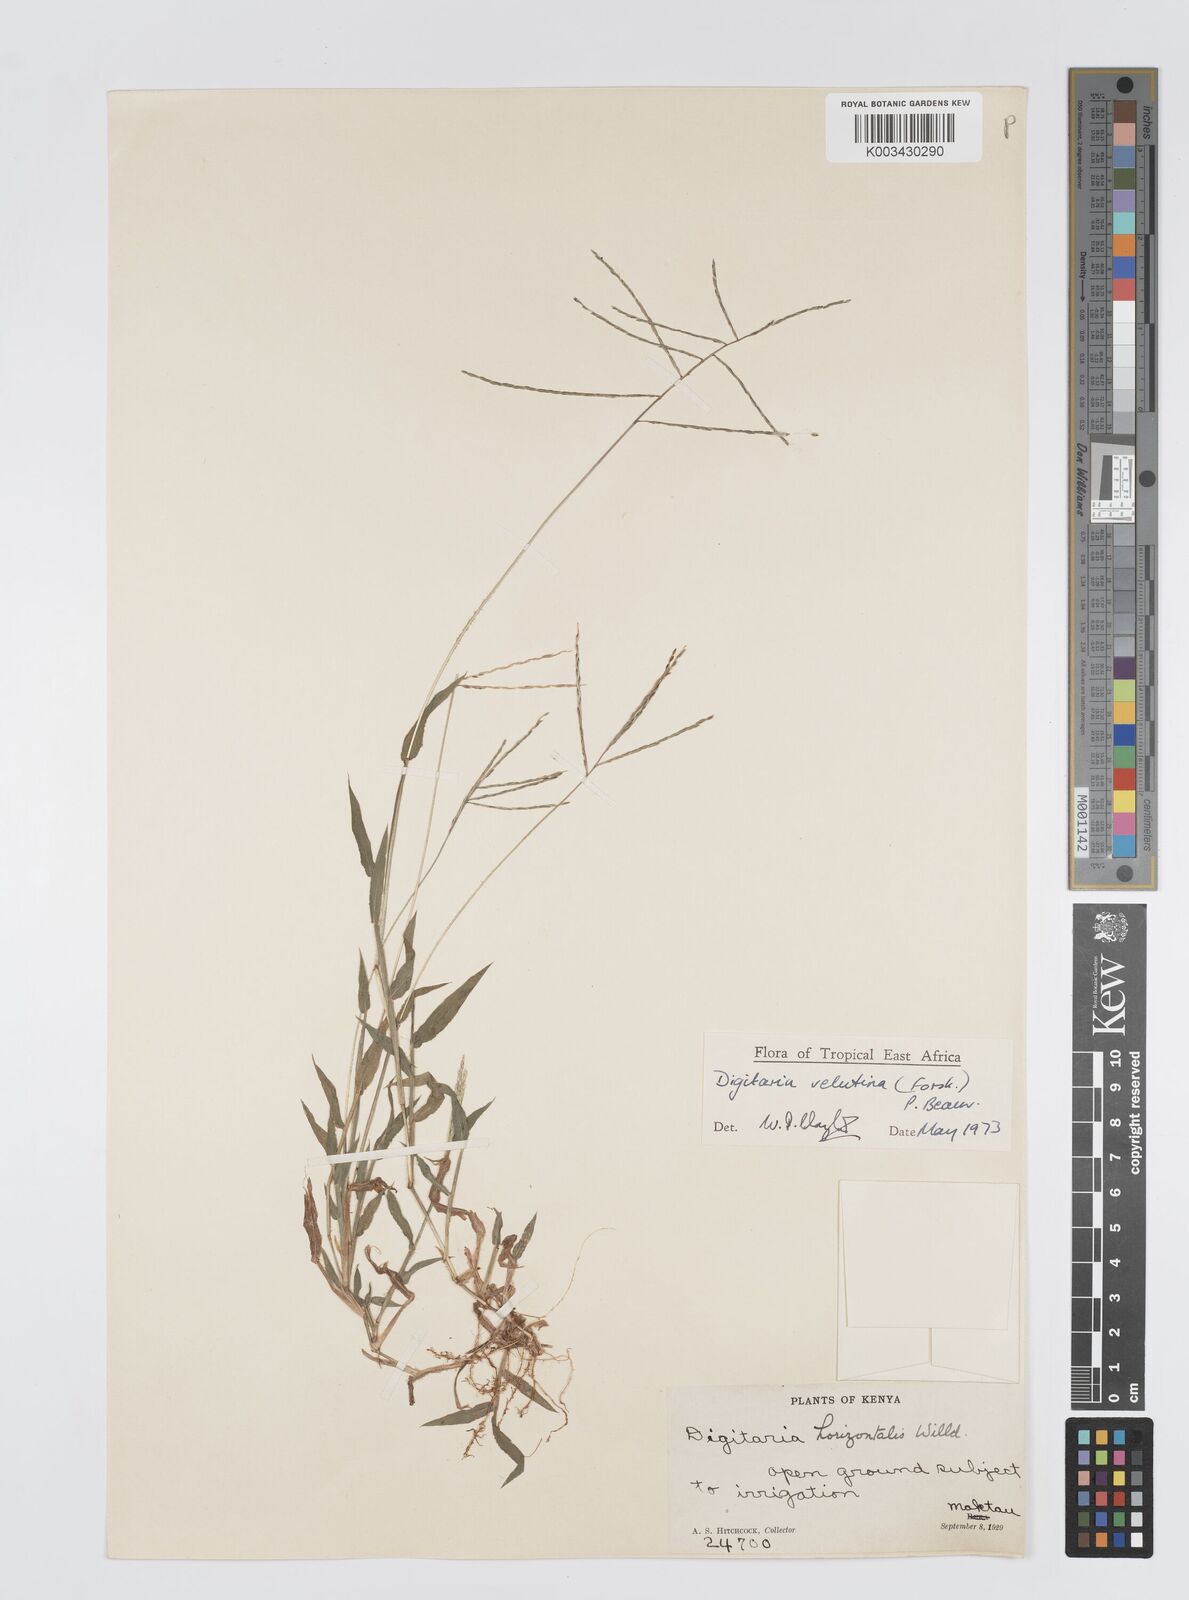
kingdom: Plantae
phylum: Tracheophyta
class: Liliopsida
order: Poales
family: Poaceae
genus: Digitaria
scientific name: Digitaria velutina
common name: Long-plume finger grass
